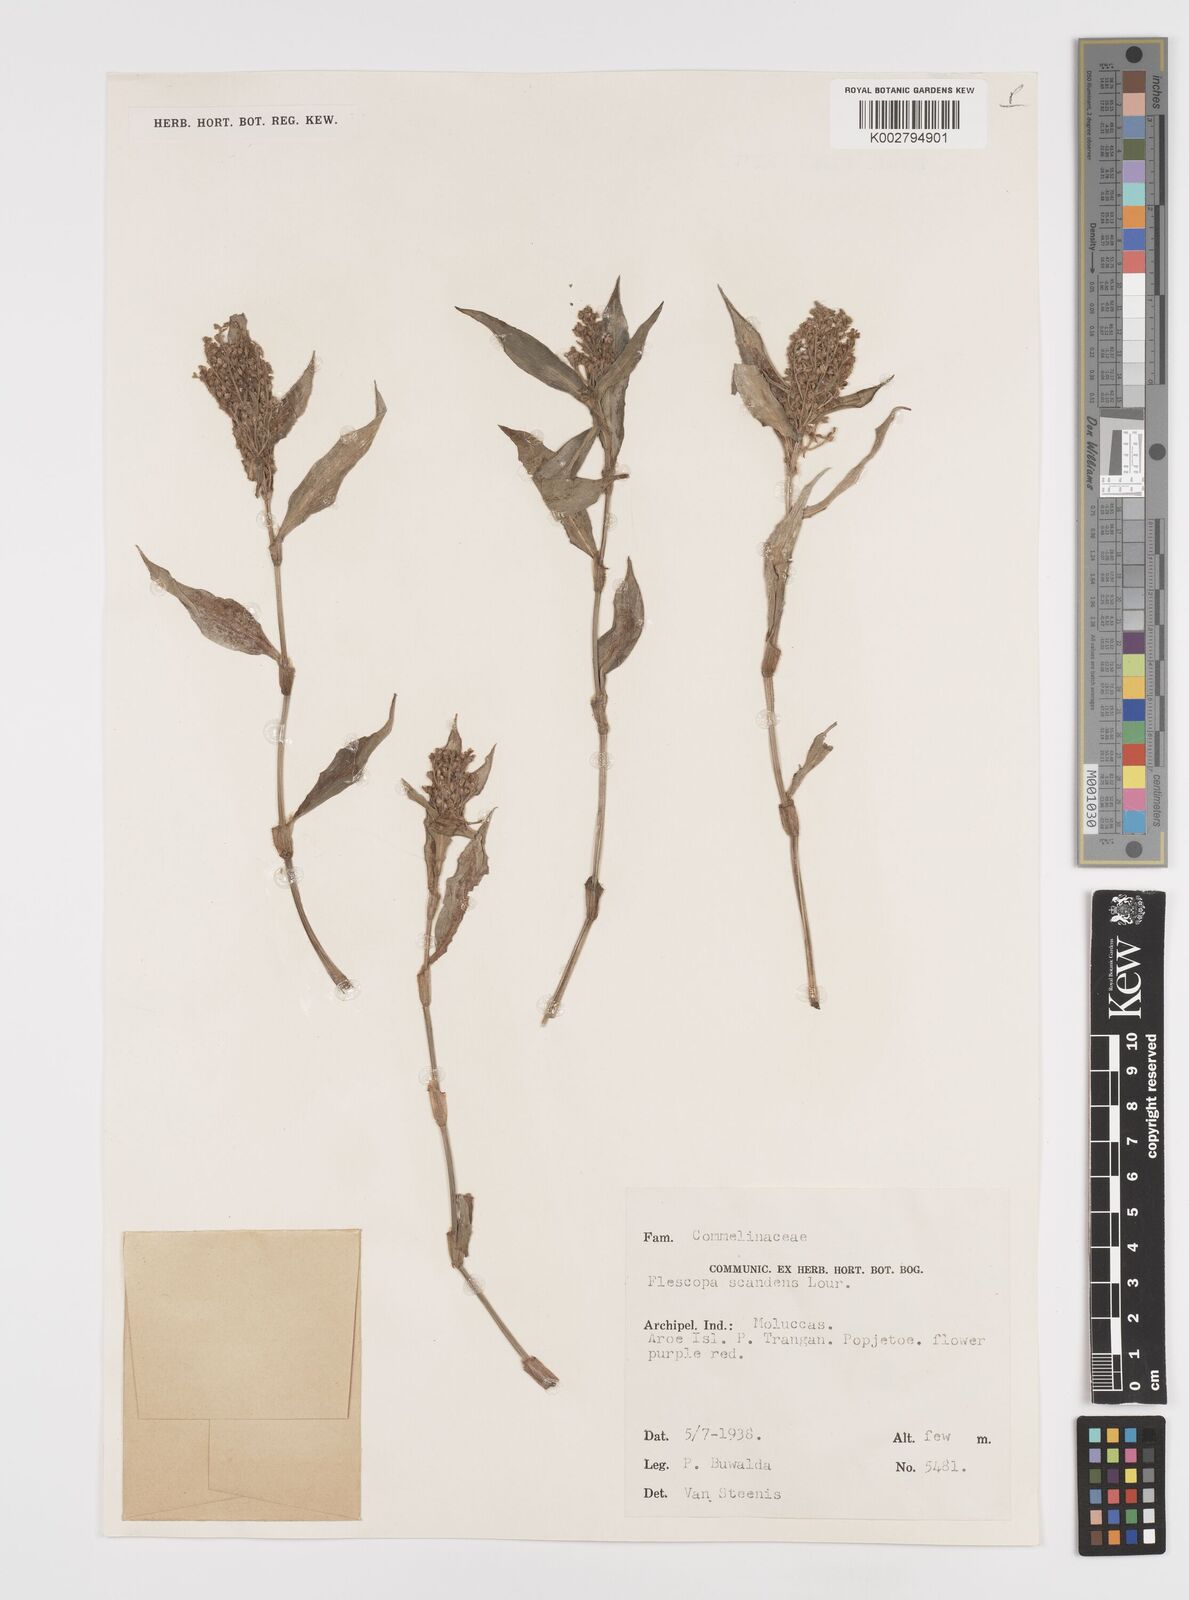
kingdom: Plantae
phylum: Tracheophyta
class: Liliopsida
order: Commelinales
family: Commelinaceae
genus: Floscopa
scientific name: Floscopa scandens
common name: Climbing flower cup
